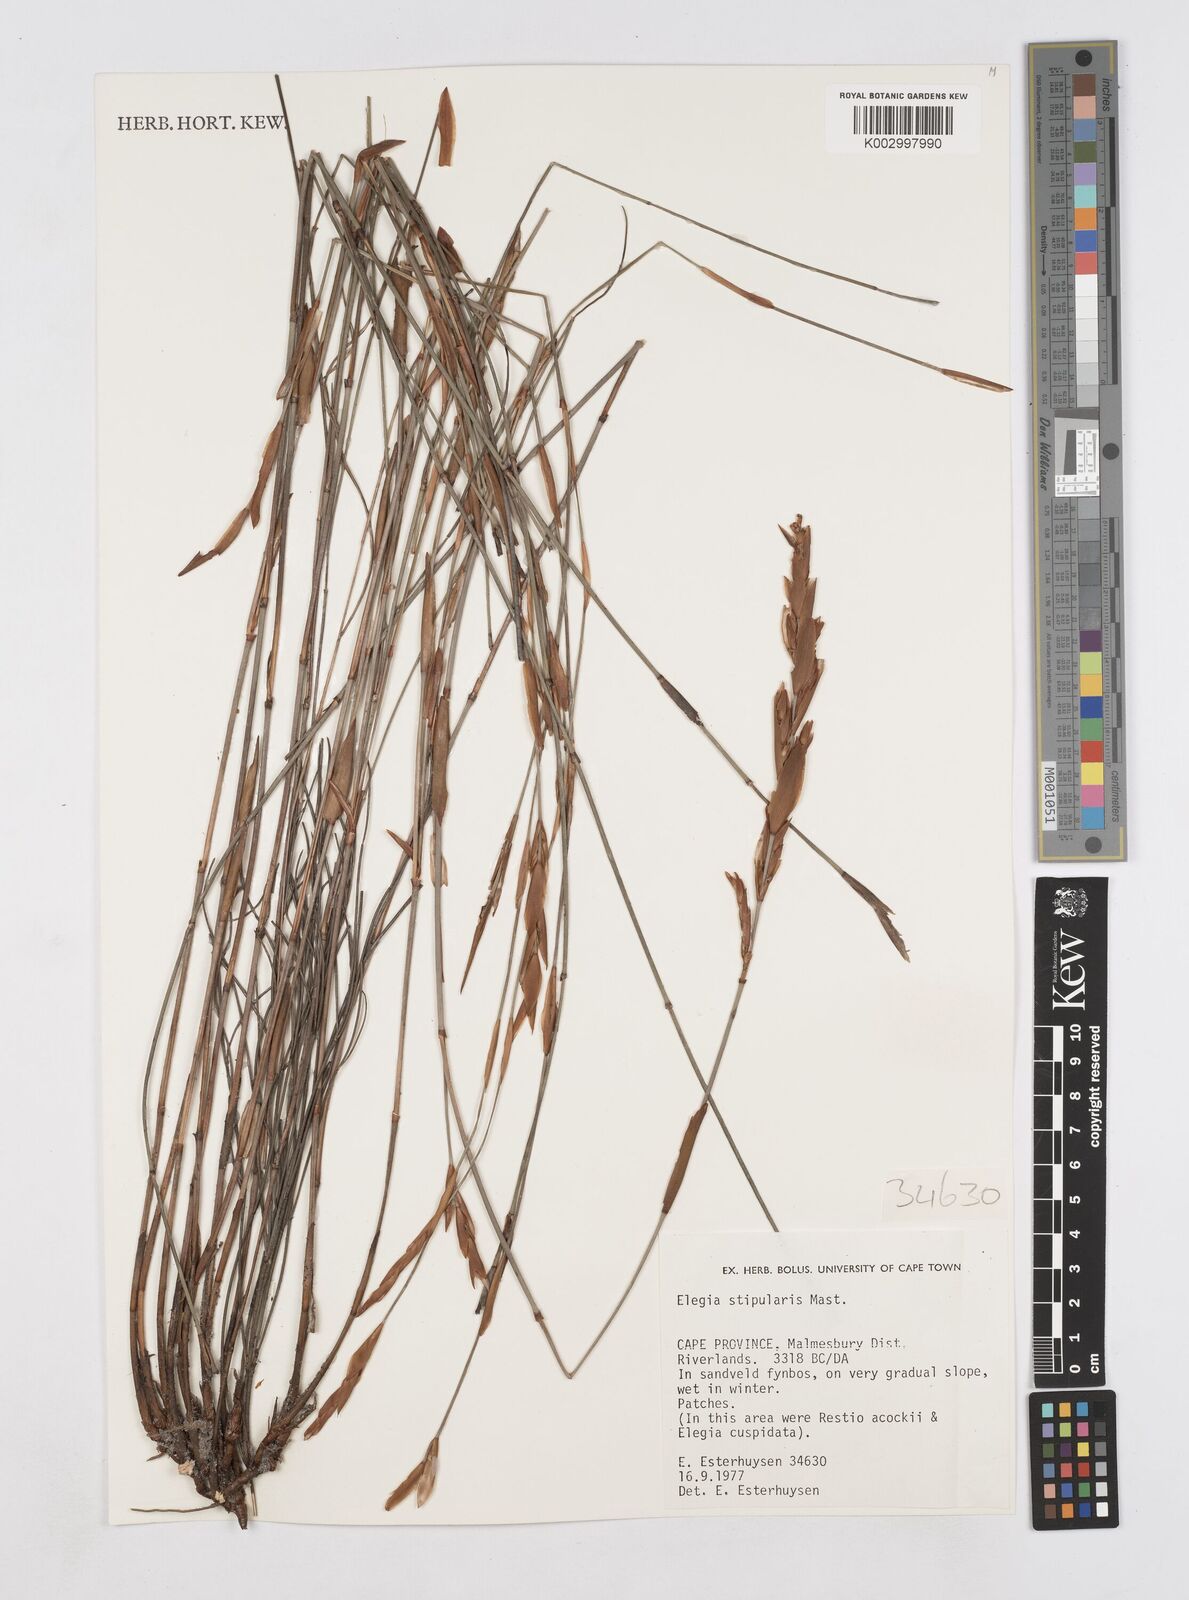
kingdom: Plantae
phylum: Tracheophyta
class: Liliopsida
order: Poales
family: Restionaceae
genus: Elegia
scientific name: Elegia stipularis
